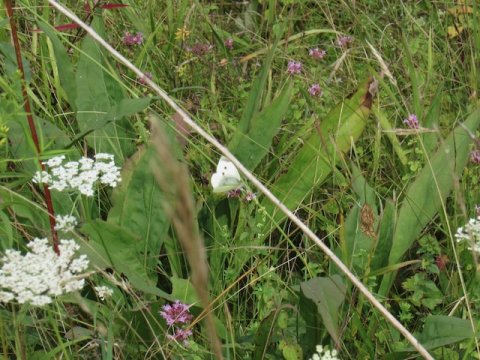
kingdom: Animalia
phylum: Arthropoda
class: Insecta
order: Lepidoptera
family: Pieridae
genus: Pieris
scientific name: Pieris rapae
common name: Cabbage White
